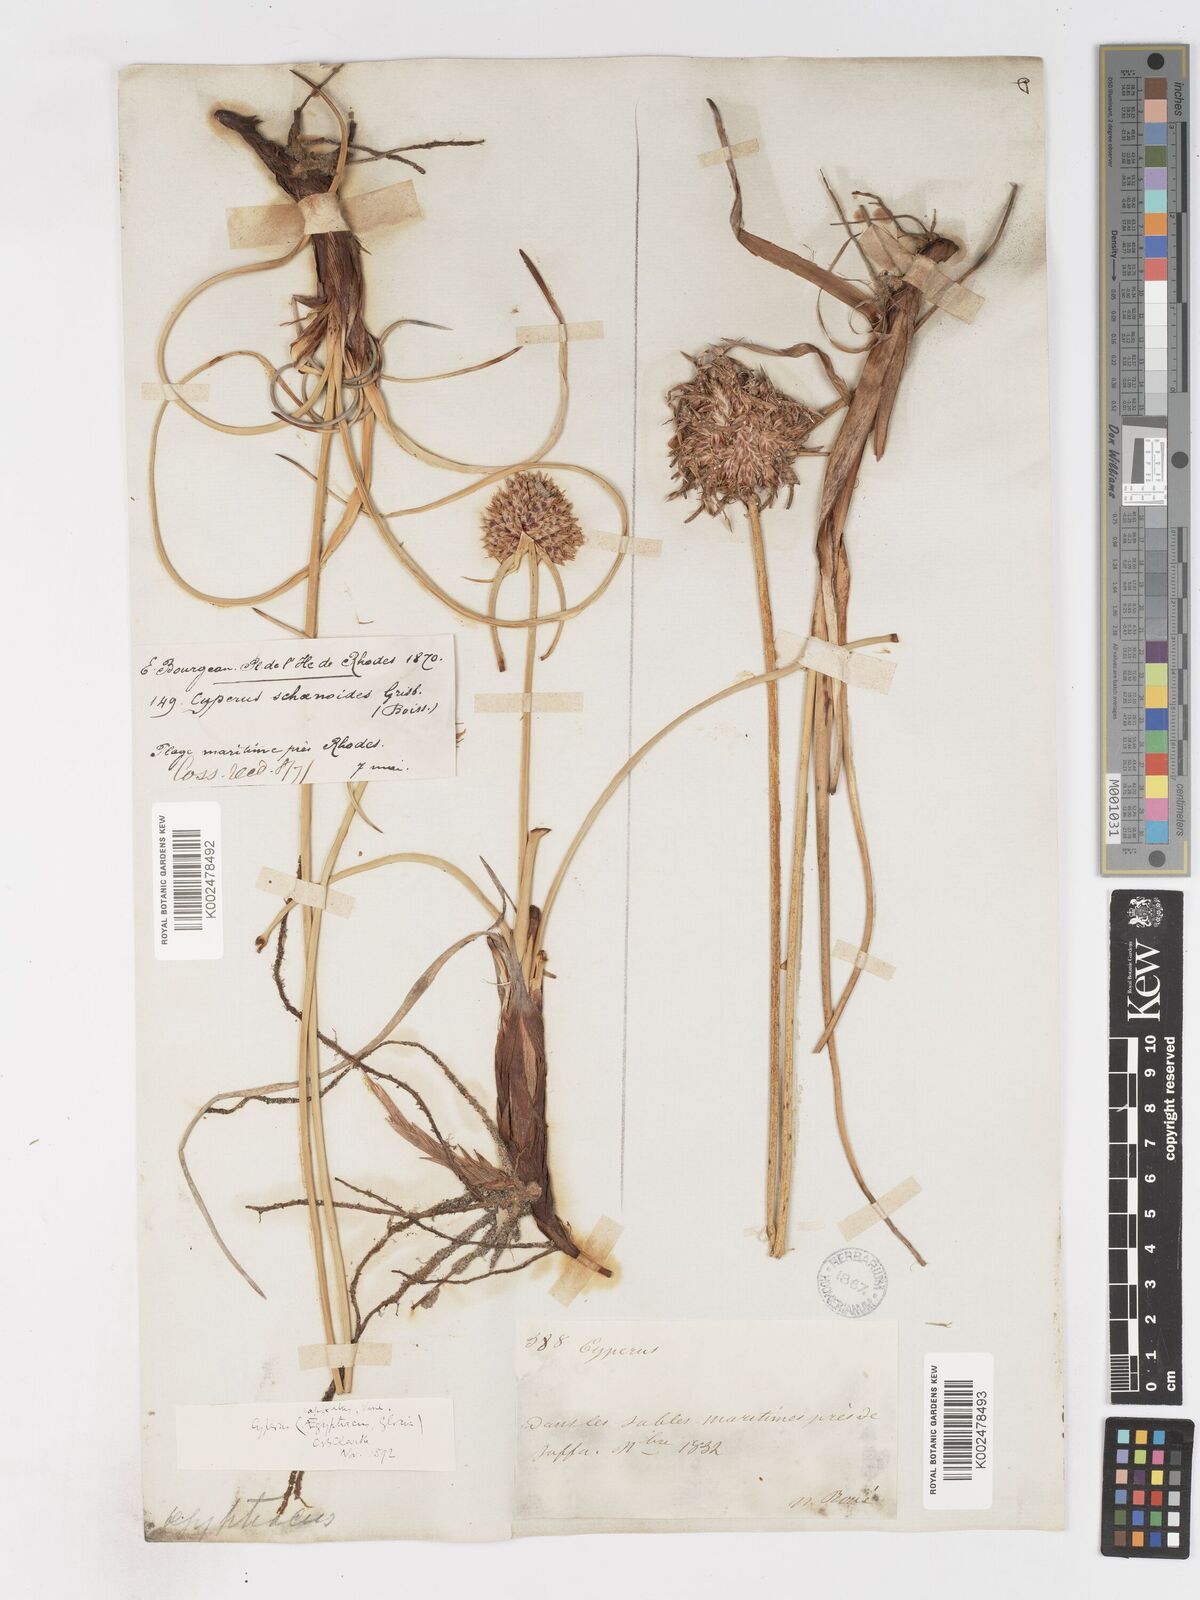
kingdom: Plantae
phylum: Tracheophyta
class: Liliopsida
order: Poales
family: Cyperaceae
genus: Cyperus
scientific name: Cyperus capitatus
